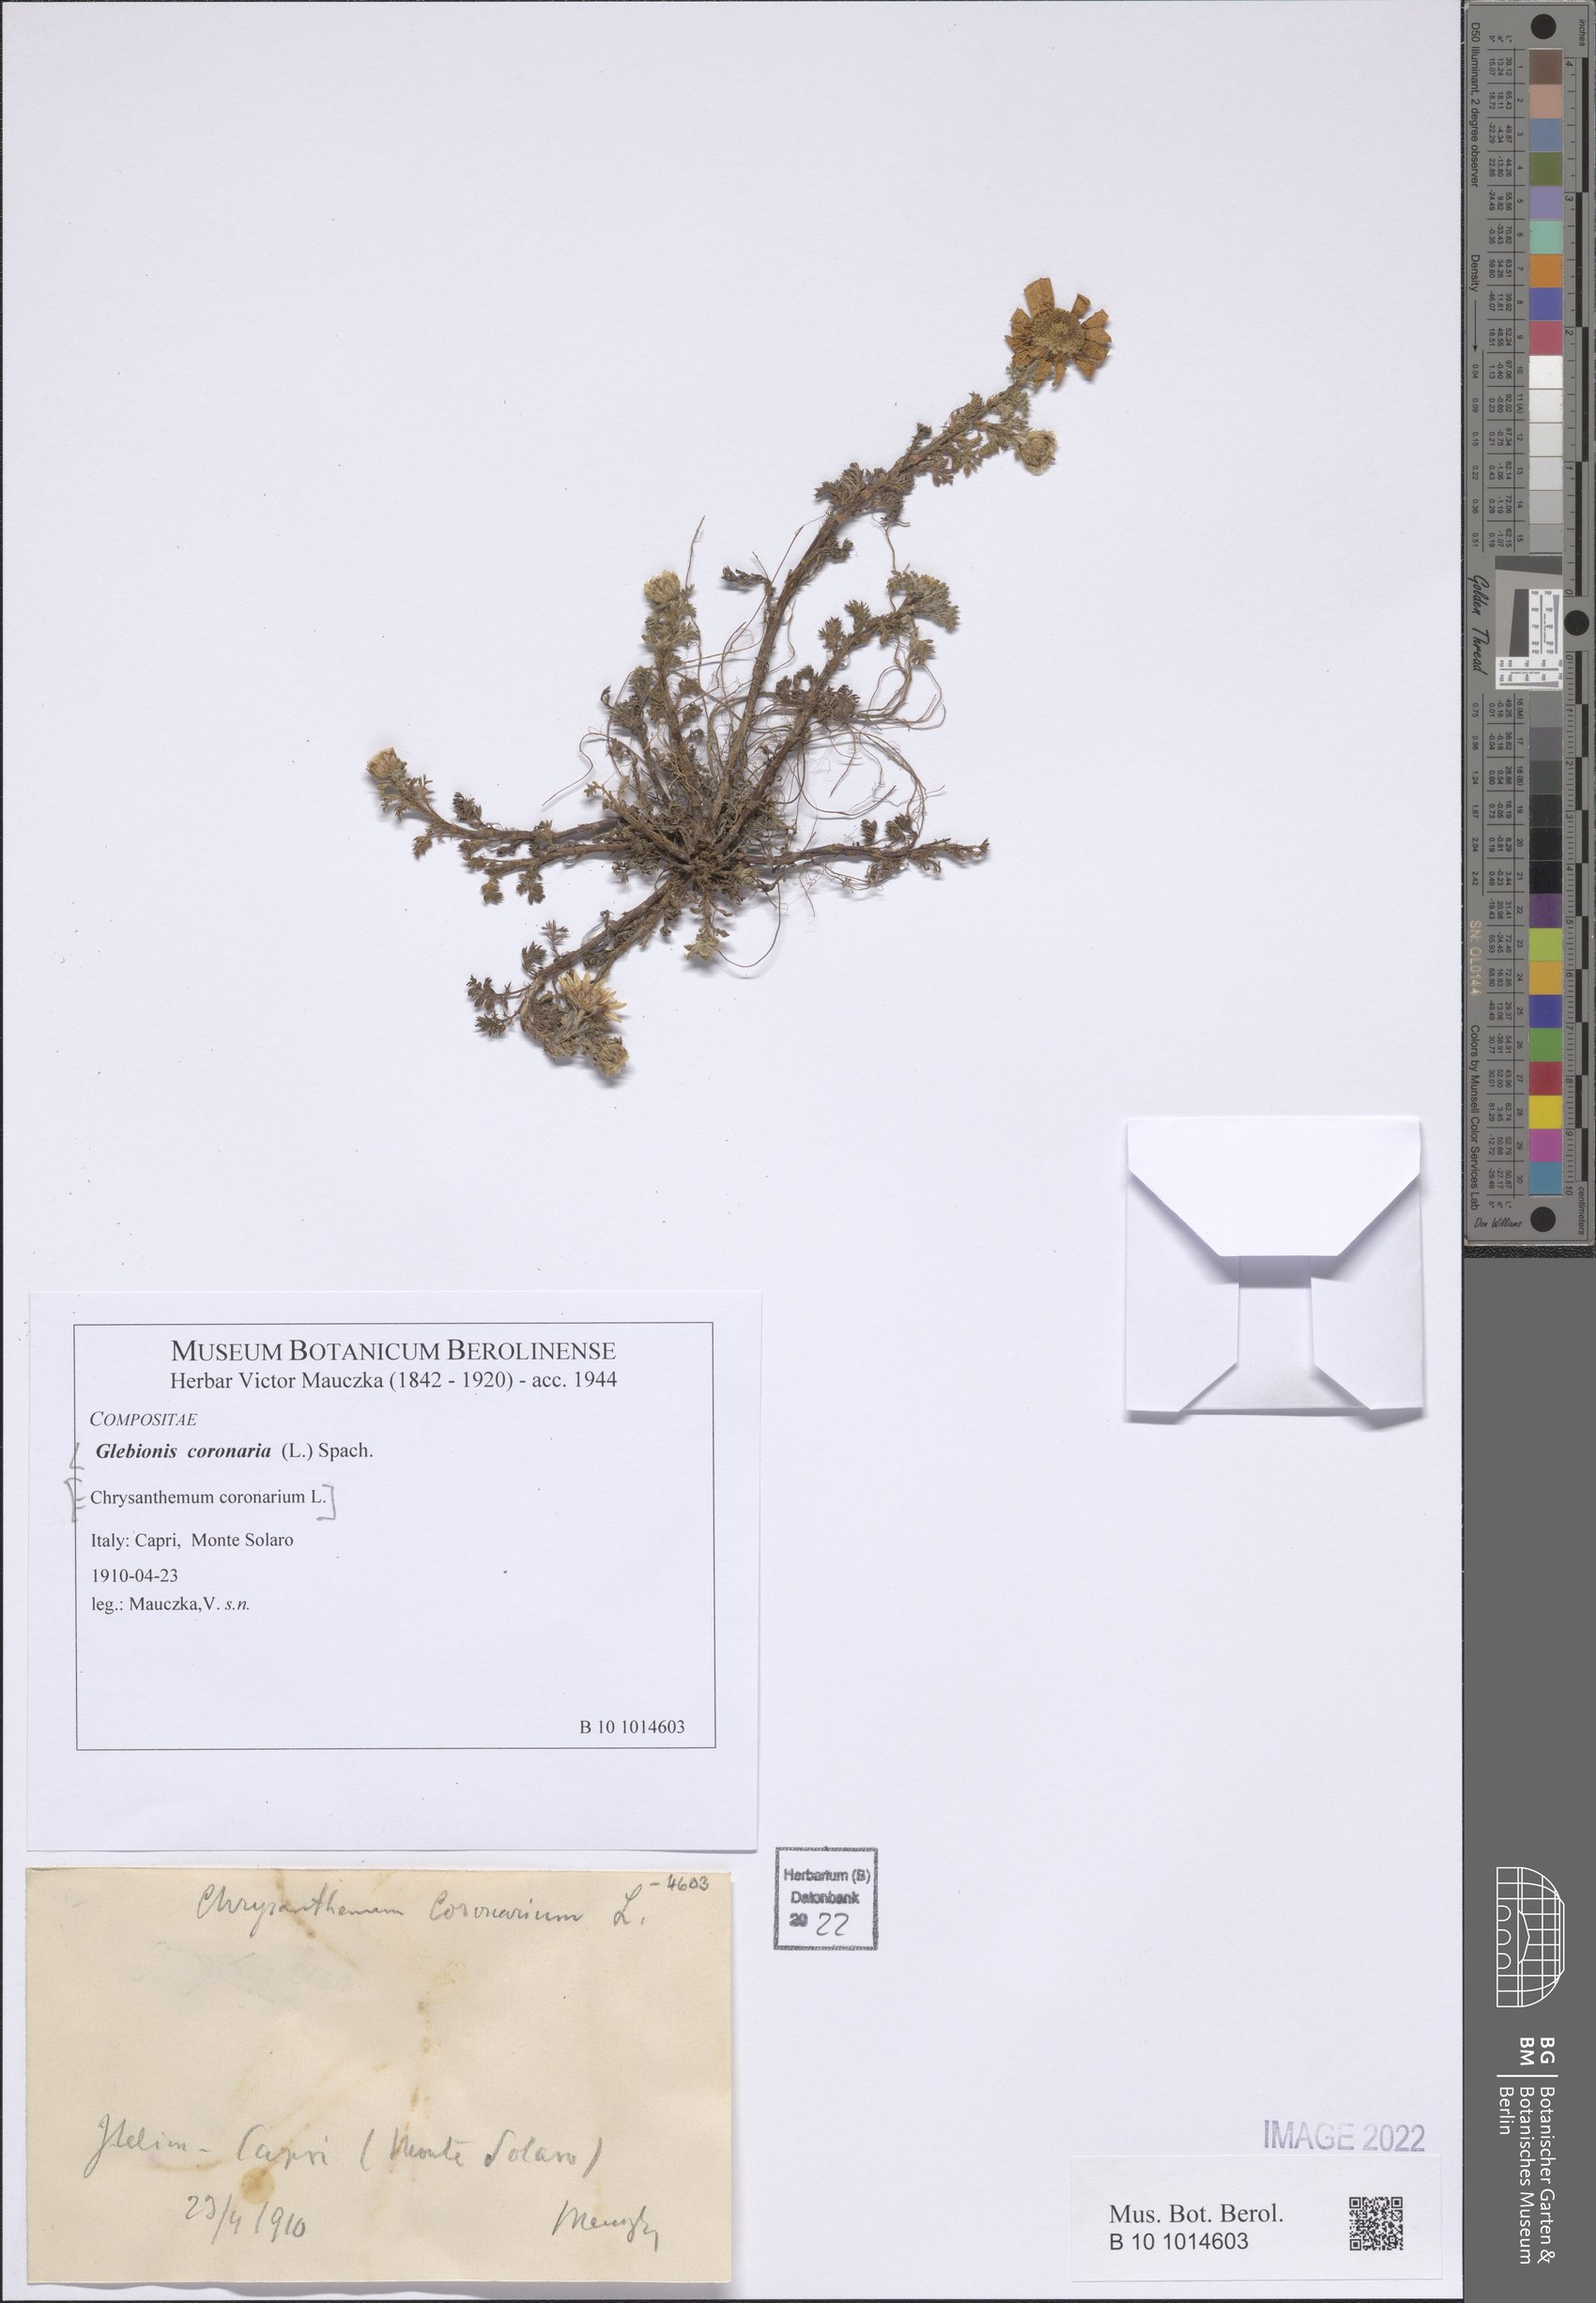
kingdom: Plantae
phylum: Tracheophyta
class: Magnoliopsida
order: Asterales
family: Asteraceae
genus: Glebionis
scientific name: Glebionis coronaria
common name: Crowndaisy
